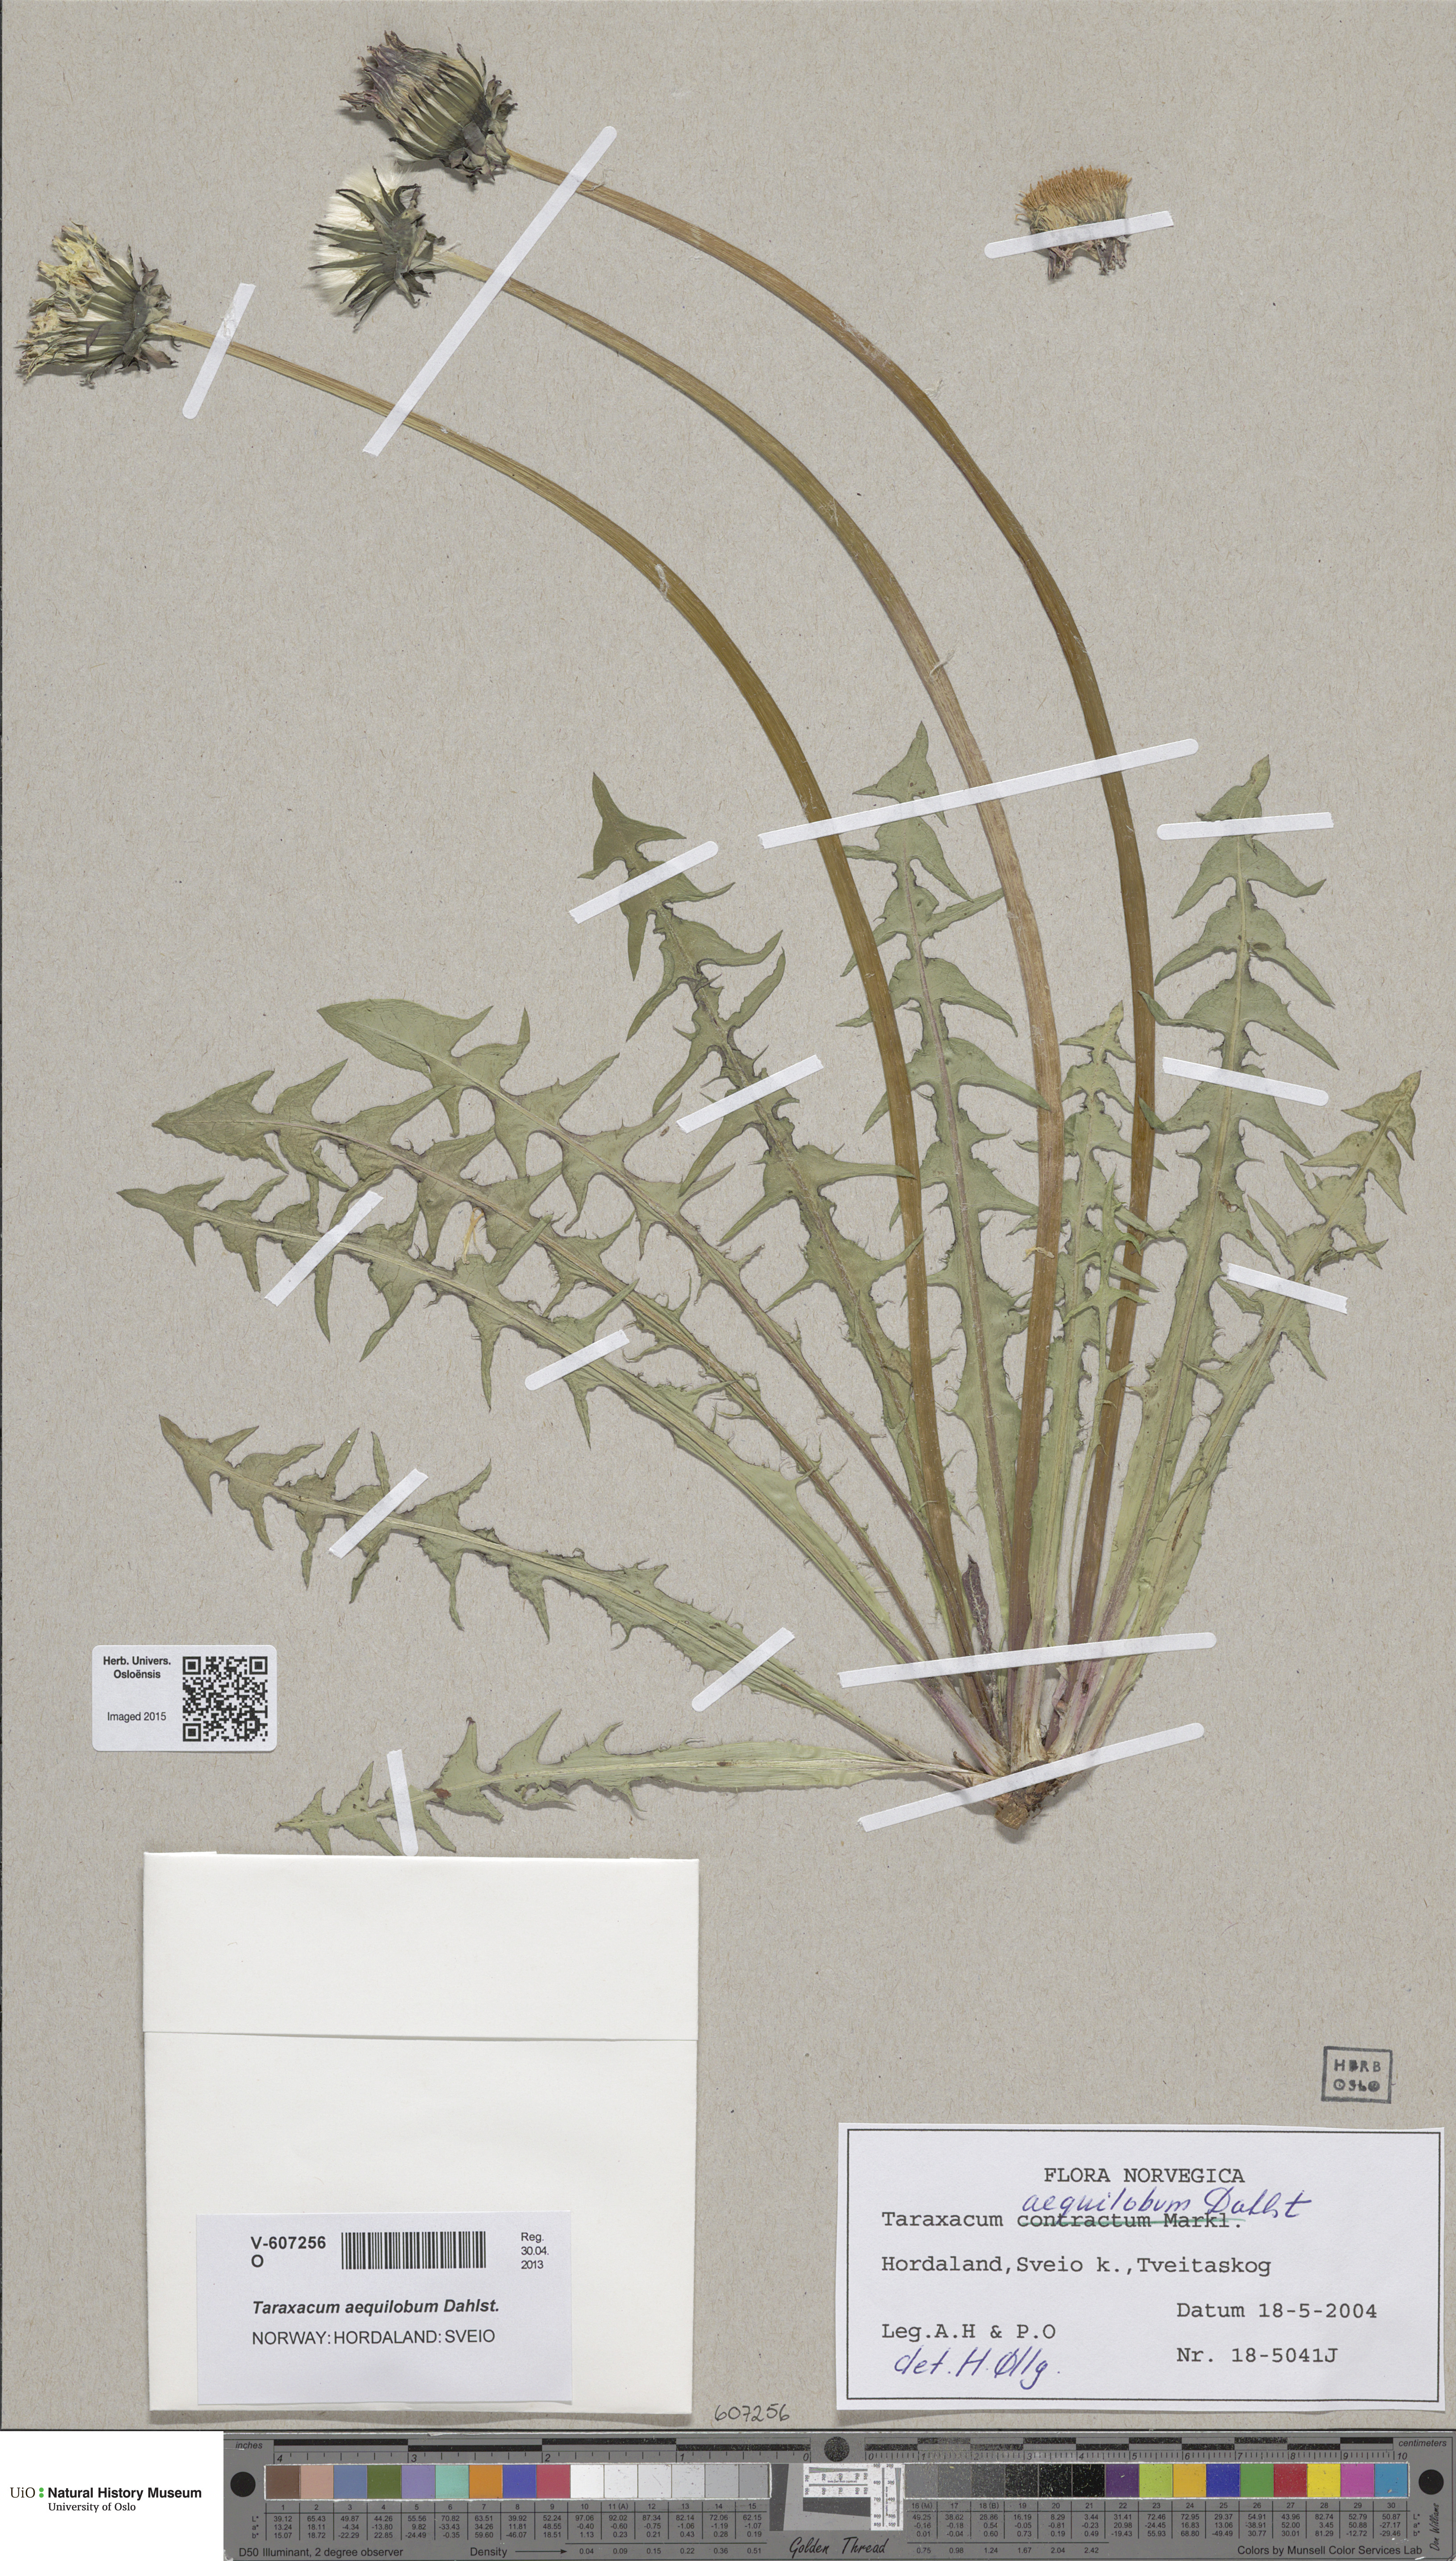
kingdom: Plantae
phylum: Tracheophyta
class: Magnoliopsida
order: Asterales
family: Asteraceae
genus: Taraxacum
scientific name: Taraxacum aequilobum
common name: Twisted-bracted dandelion
